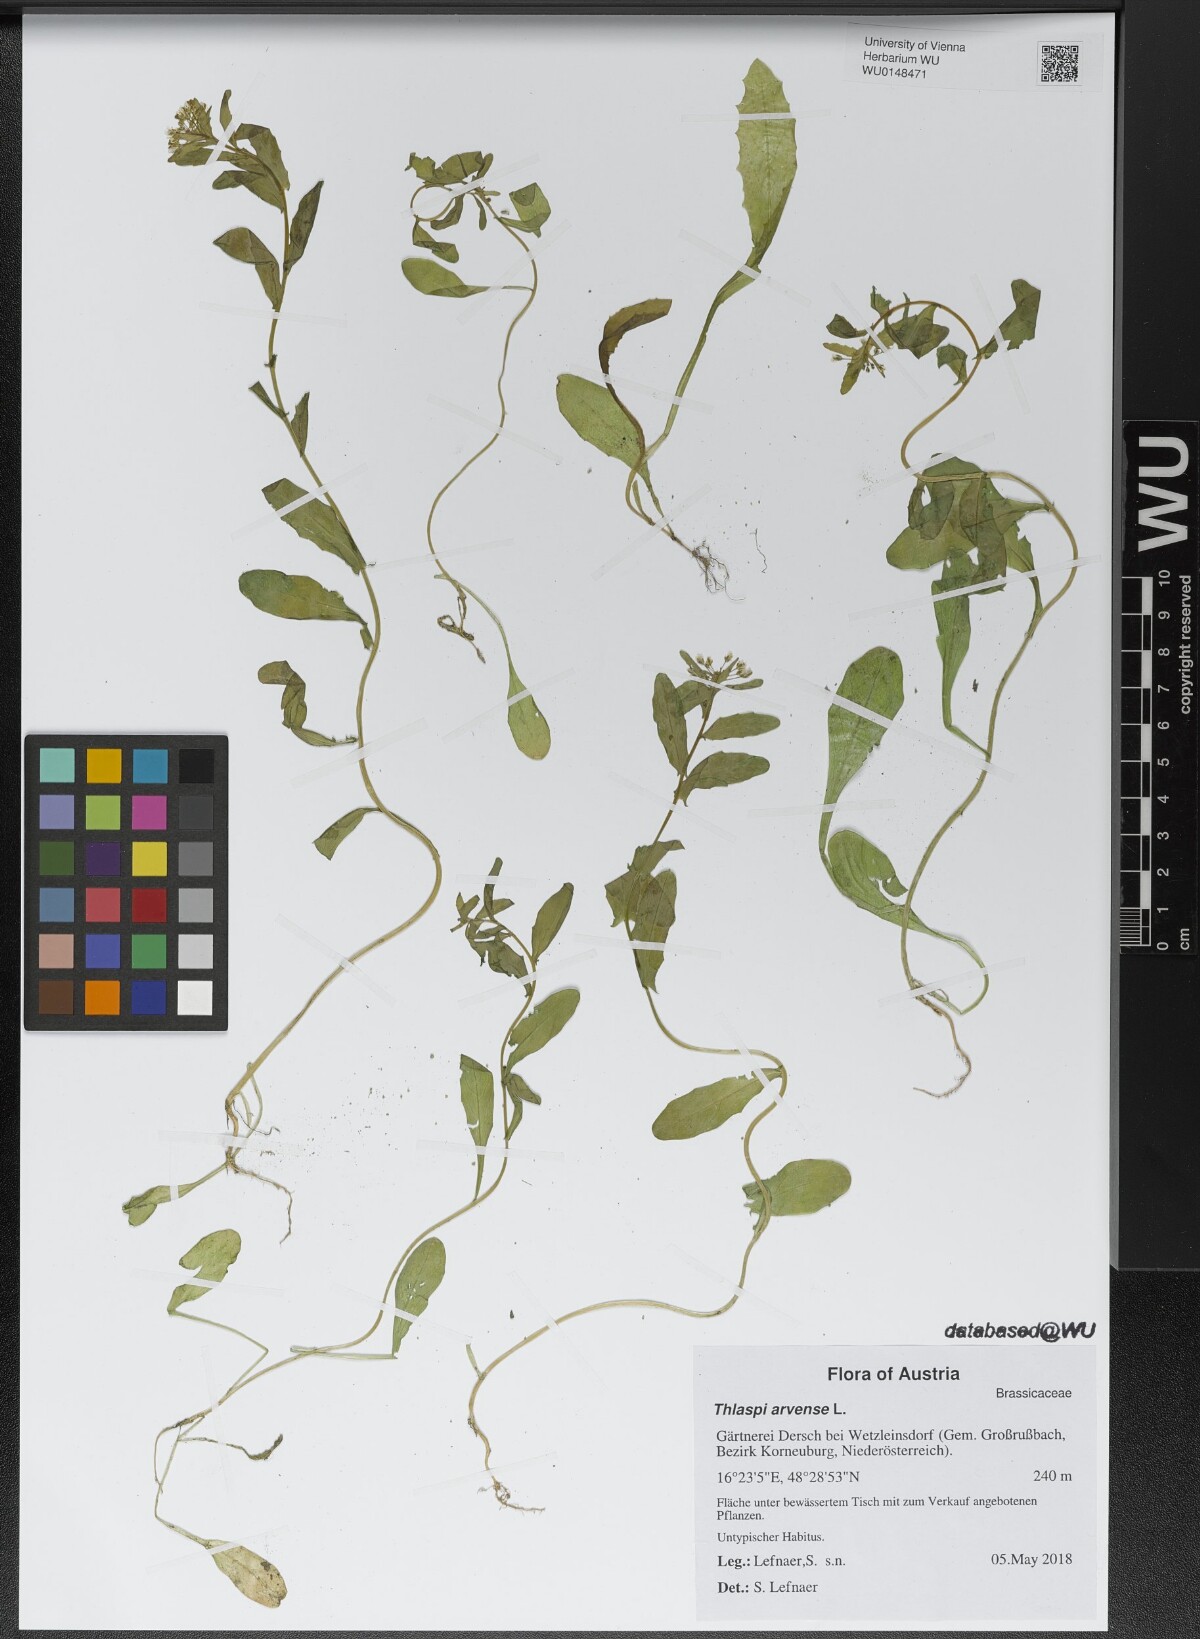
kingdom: Plantae
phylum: Tracheophyta
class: Magnoliopsida
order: Brassicales
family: Brassicaceae
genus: Thlaspi
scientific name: Thlaspi arvense
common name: Field pennycress
